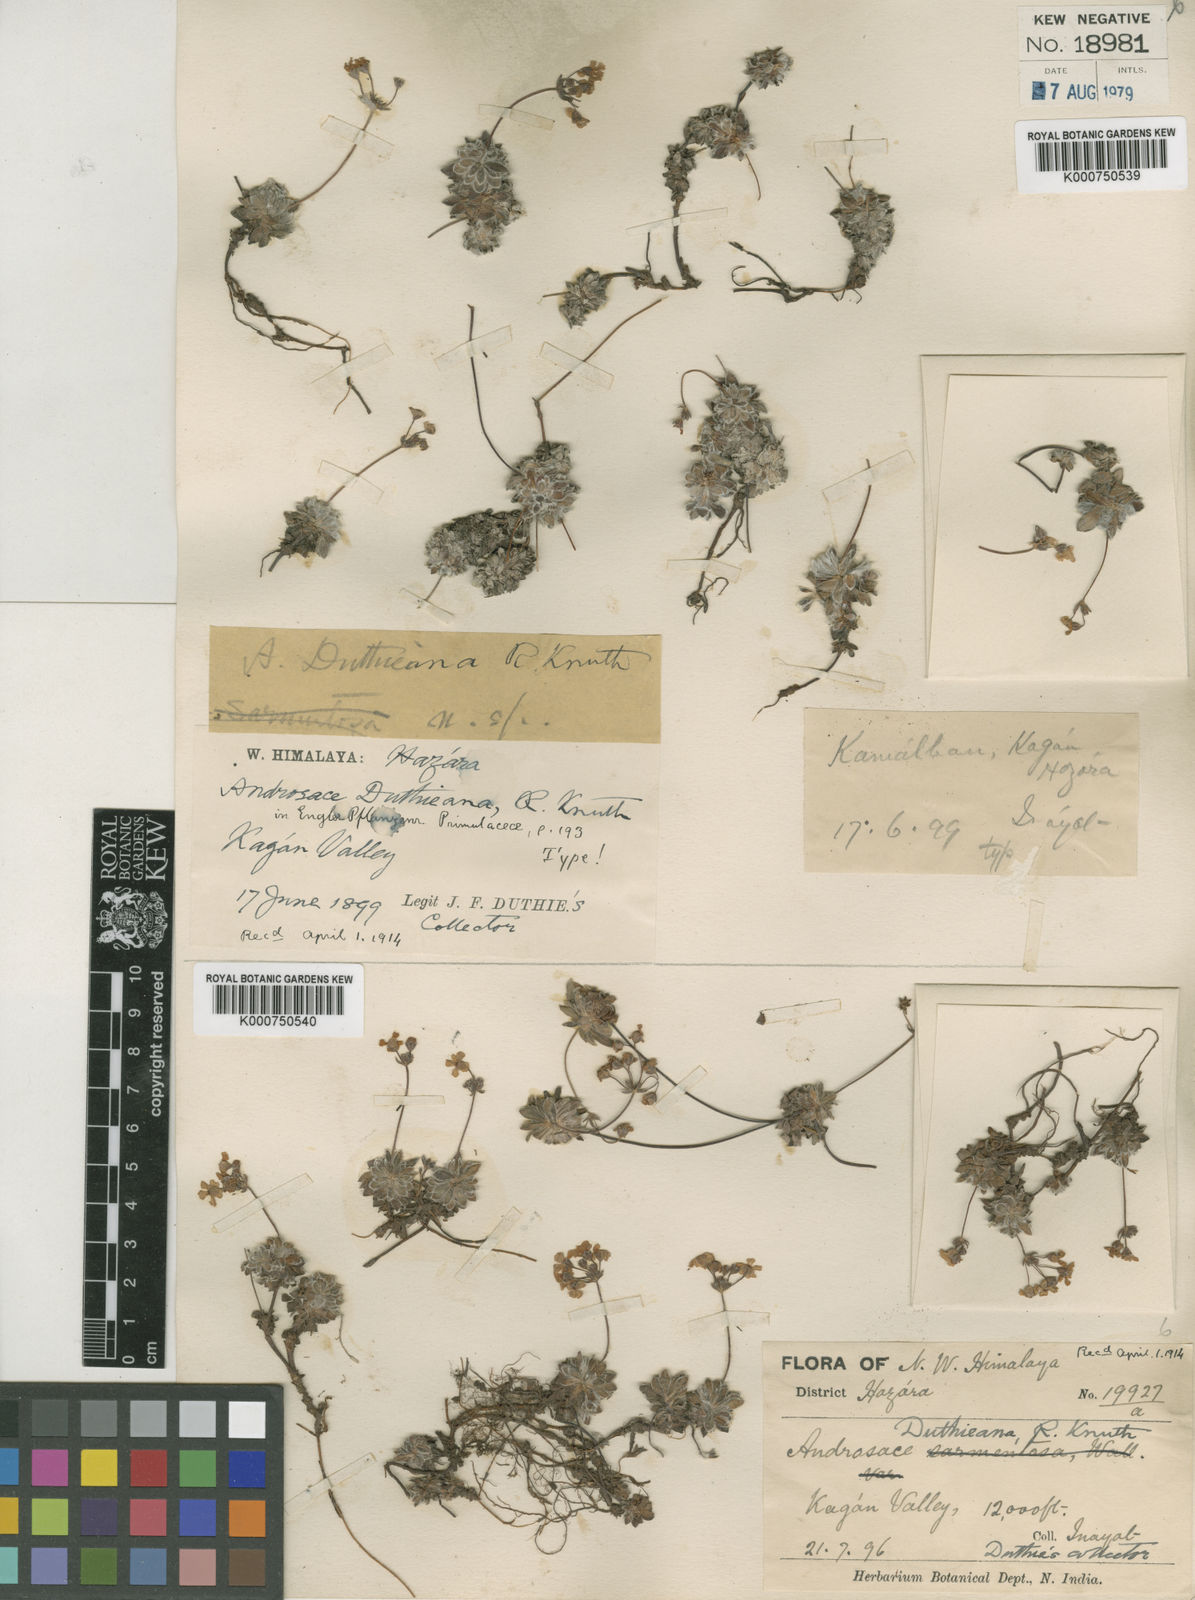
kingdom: Plantae
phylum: Tracheophyta
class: Magnoliopsida
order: Ericales
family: Primulaceae
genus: Androsace
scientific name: Androsace duthieana
